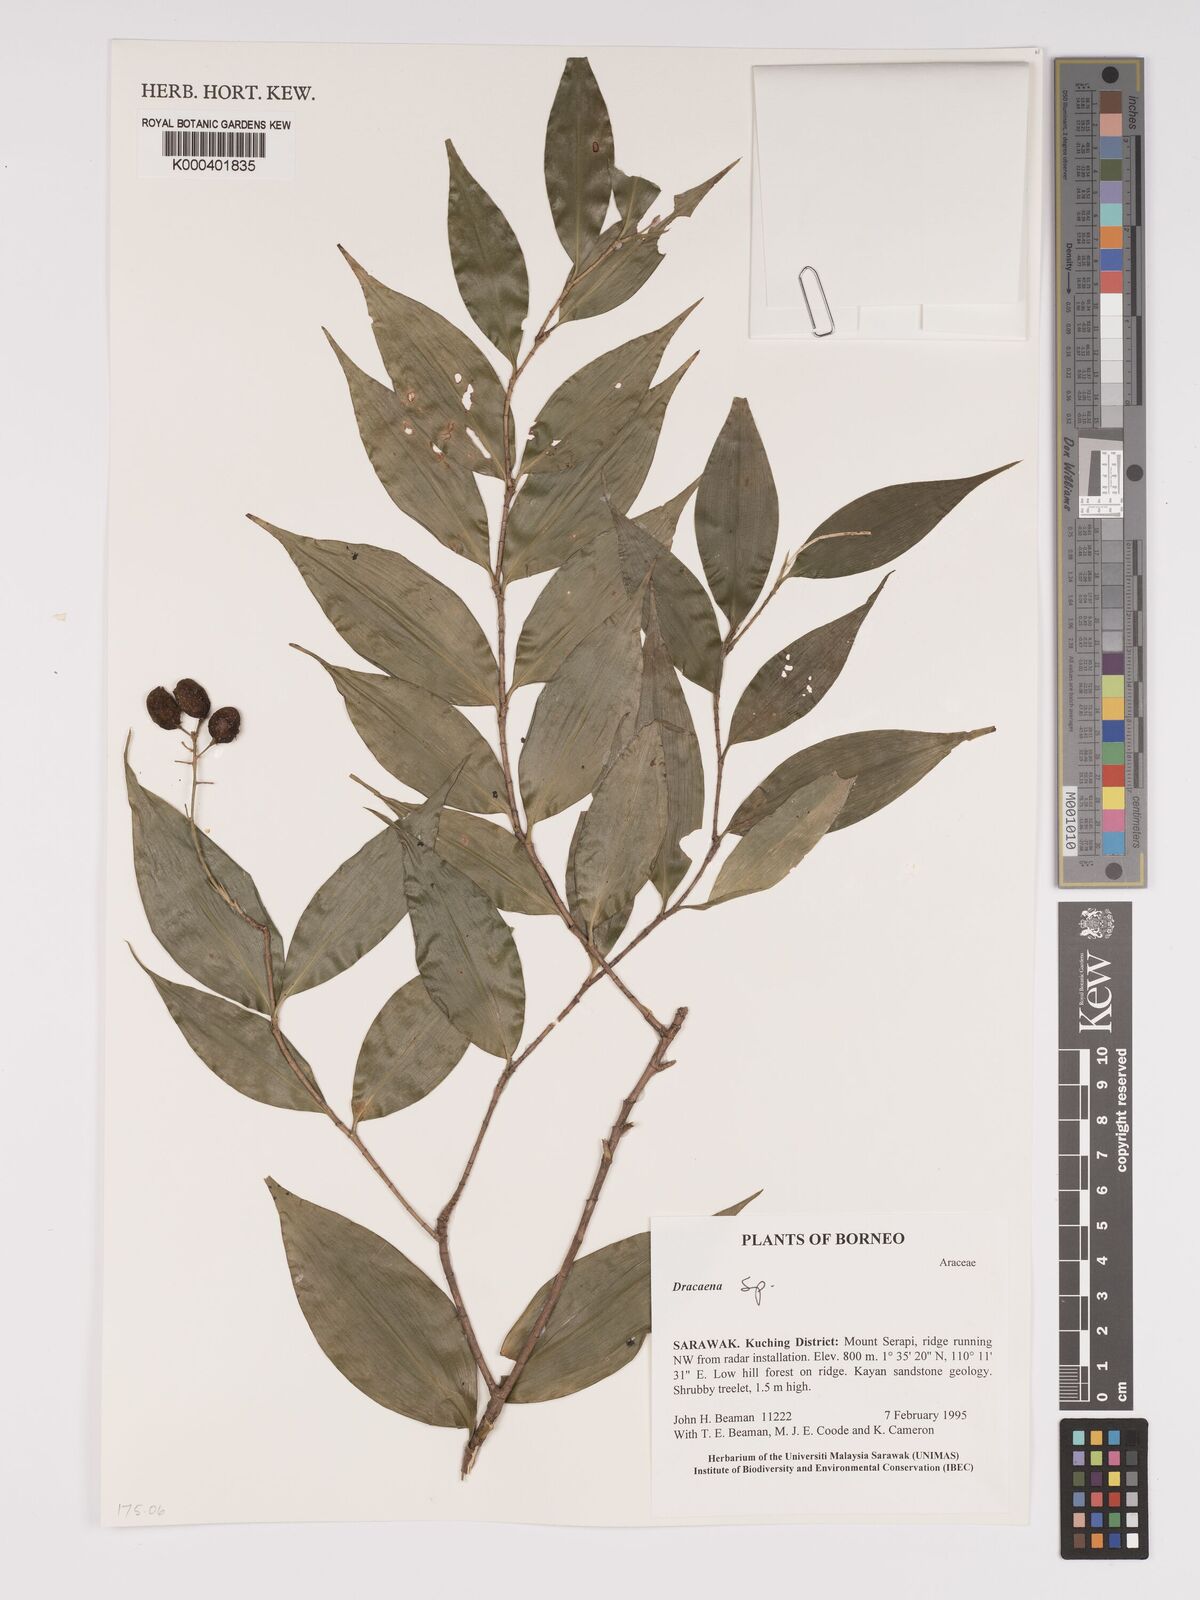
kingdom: Plantae
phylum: Tracheophyta
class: Liliopsida
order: Asparagales
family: Asparagaceae
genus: Dracaena
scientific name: Dracaena
